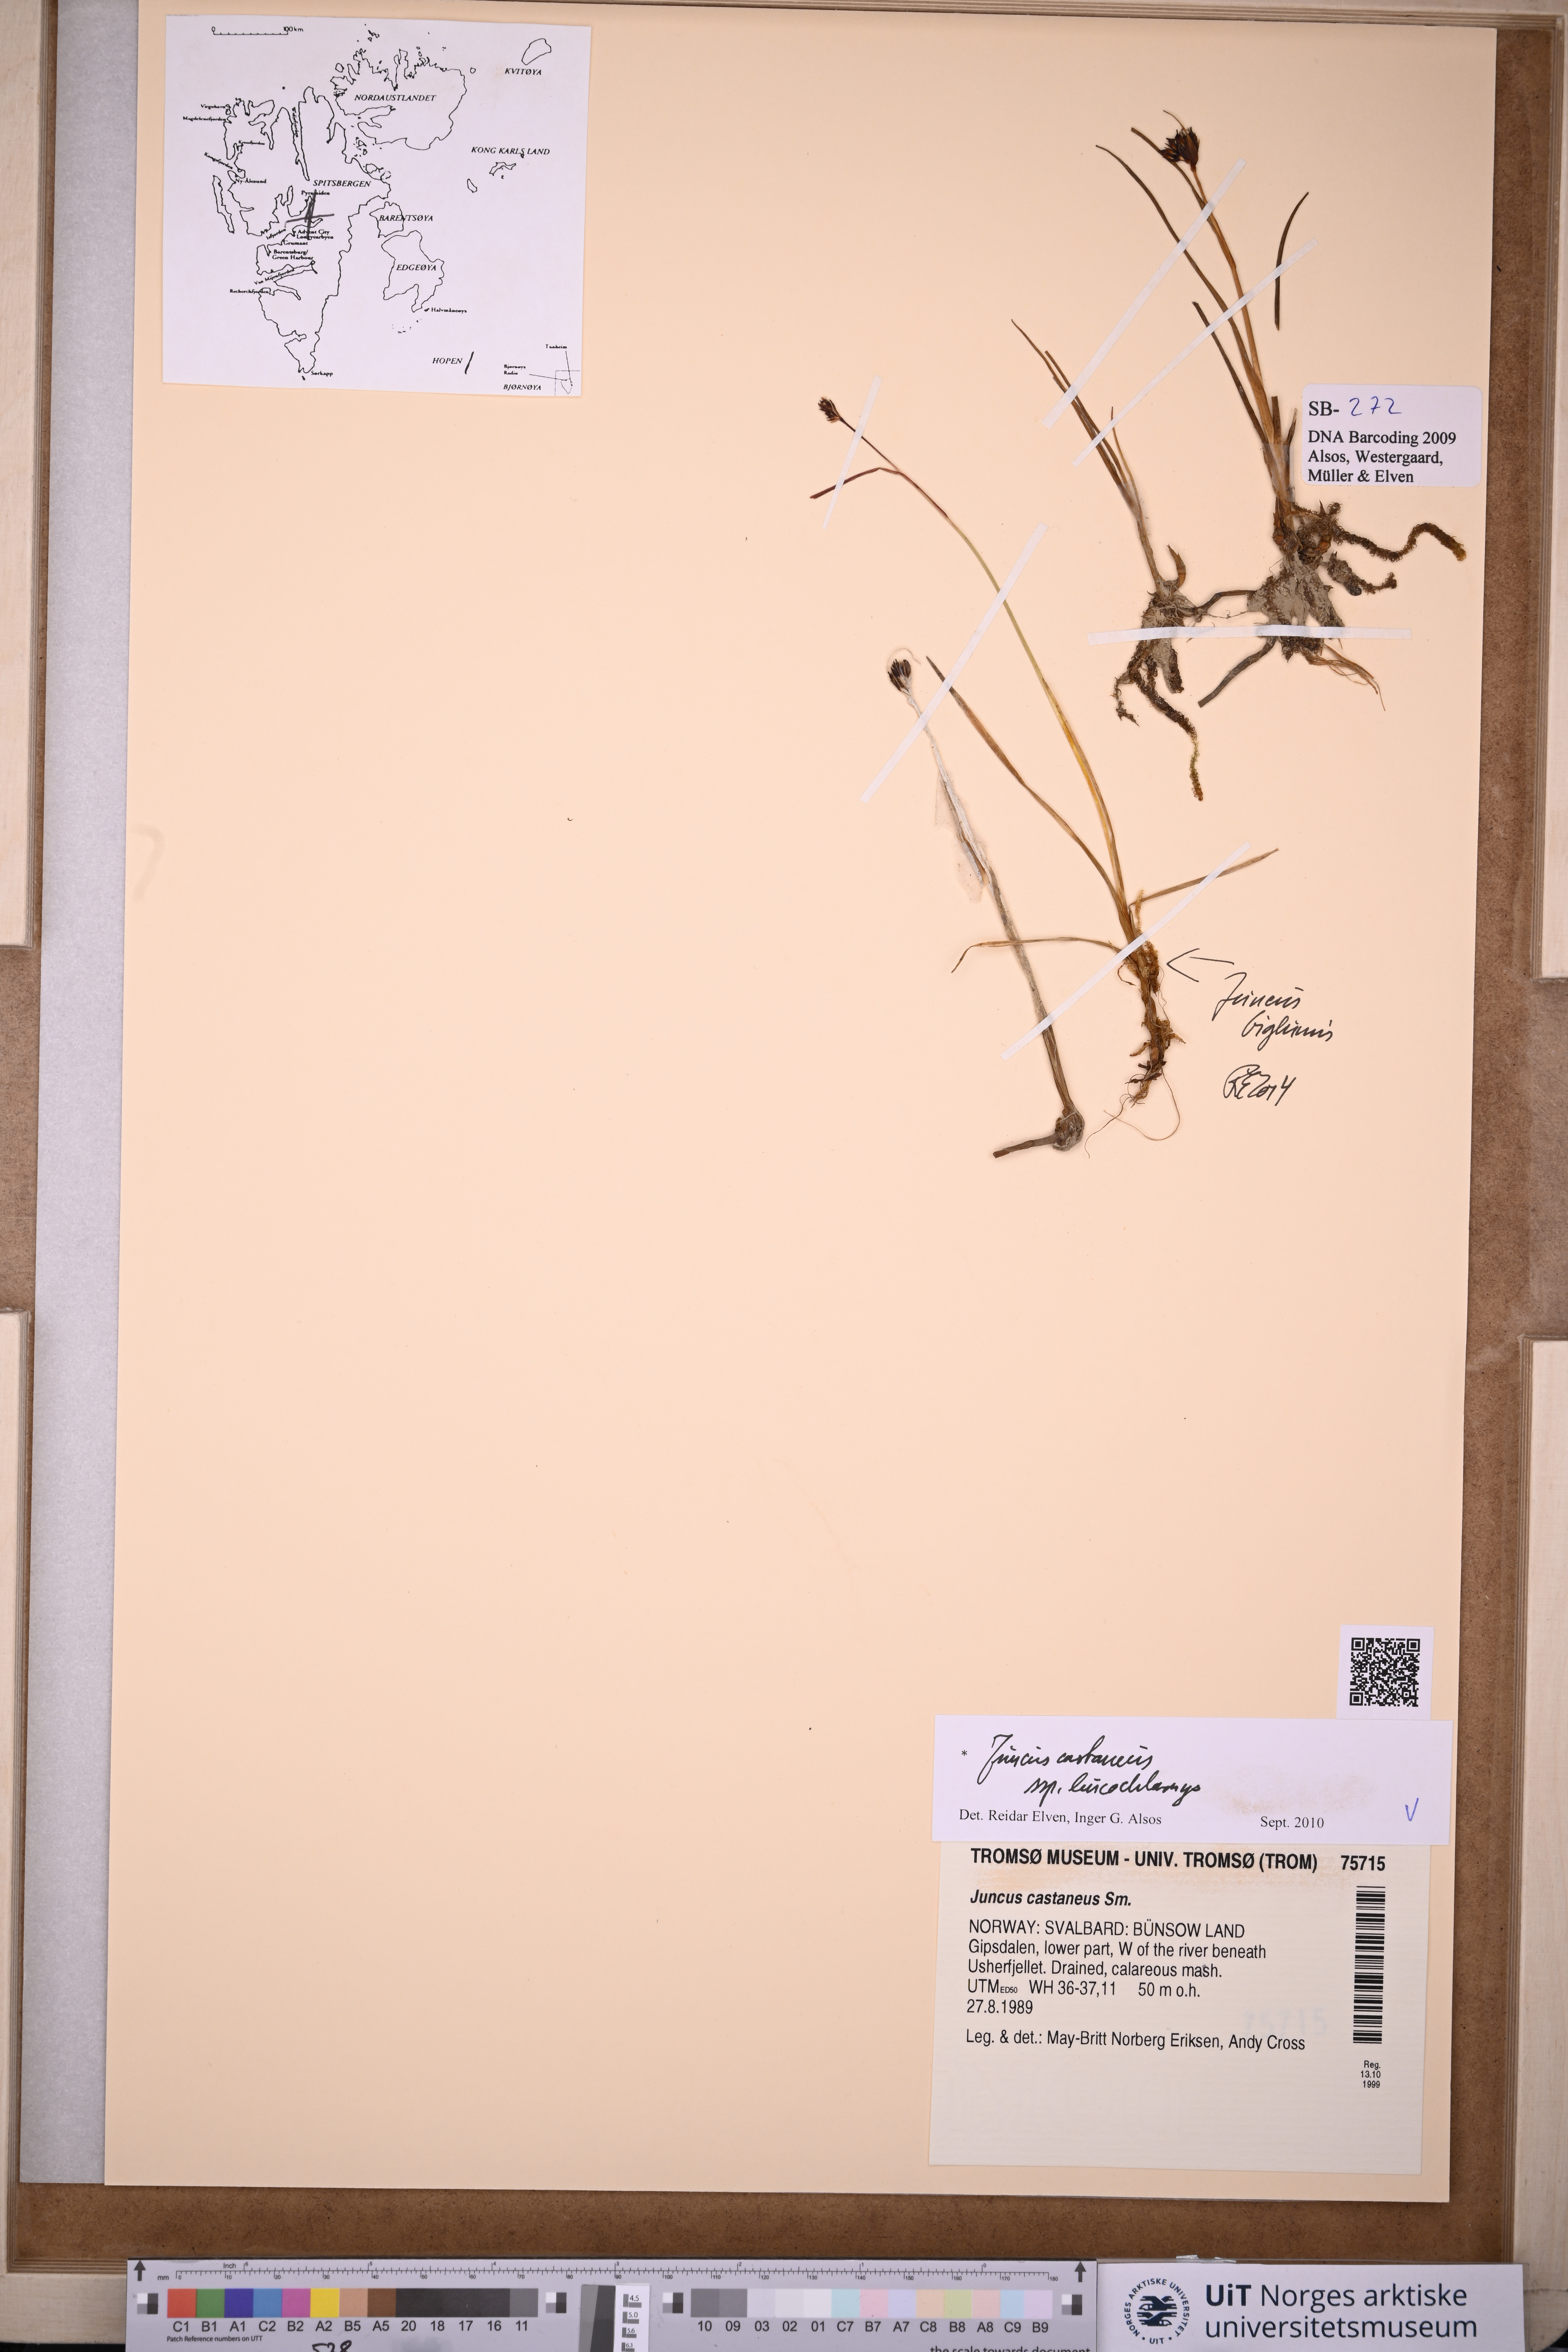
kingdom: Plantae
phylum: Tracheophyta
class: Liliopsida
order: Poales
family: Juncaceae
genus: Juncus
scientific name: Juncus castaneus
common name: Chestnut rush
